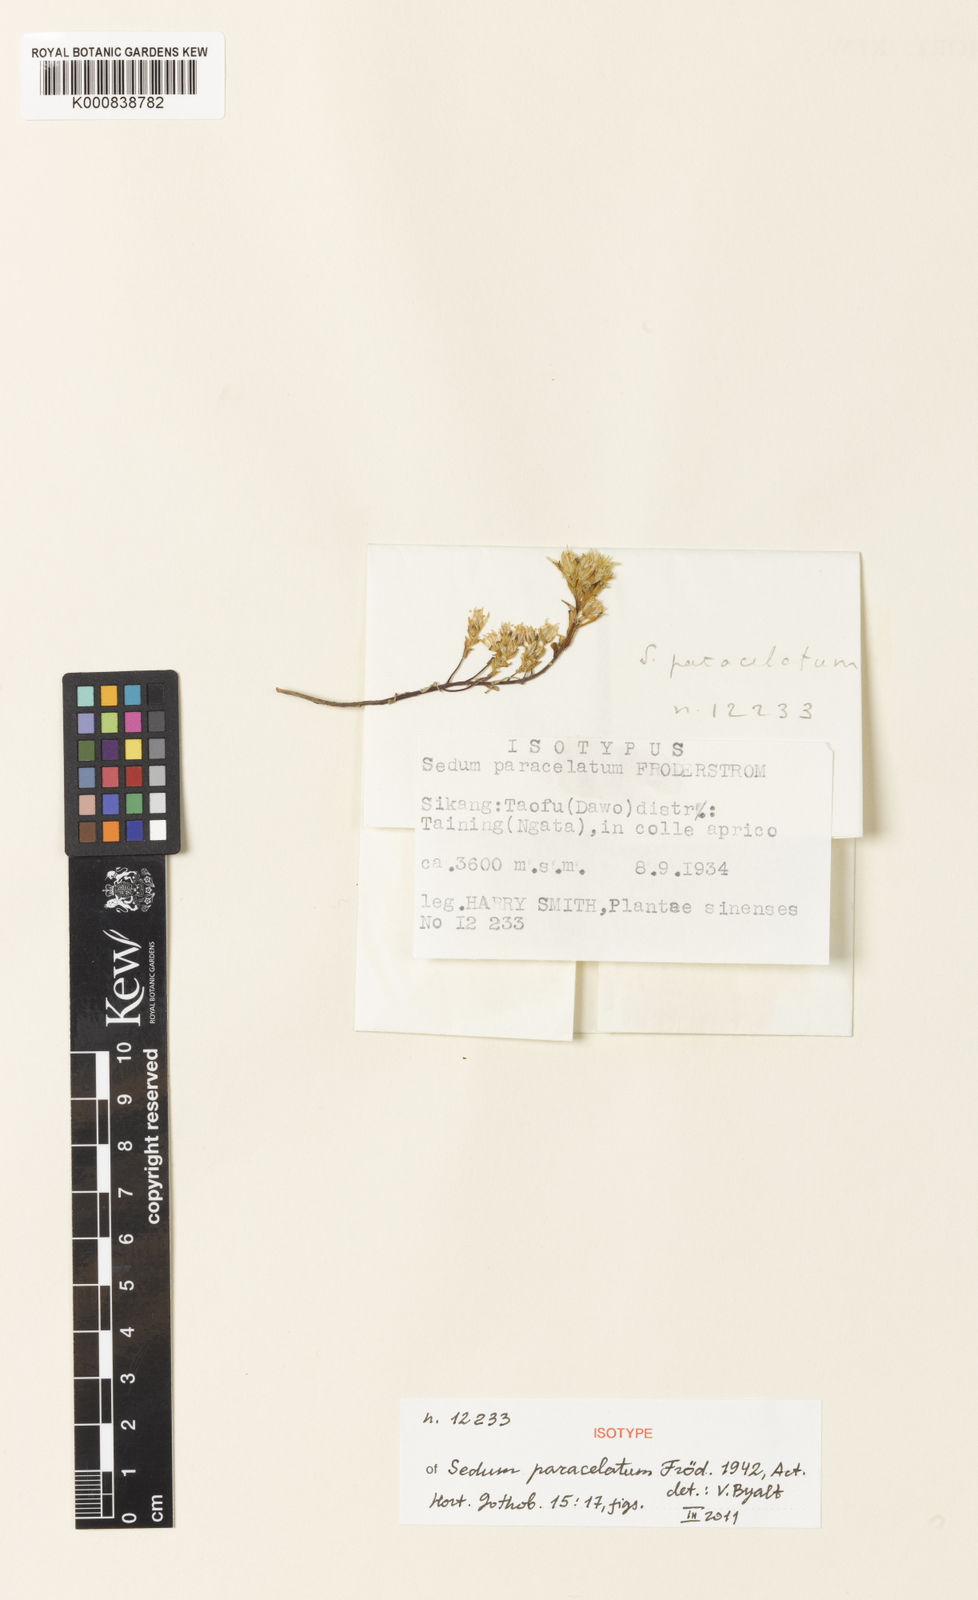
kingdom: Plantae
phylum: Tracheophyta
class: Magnoliopsida
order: Saxifragales
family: Crassulaceae
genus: Sedum
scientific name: Sedum
